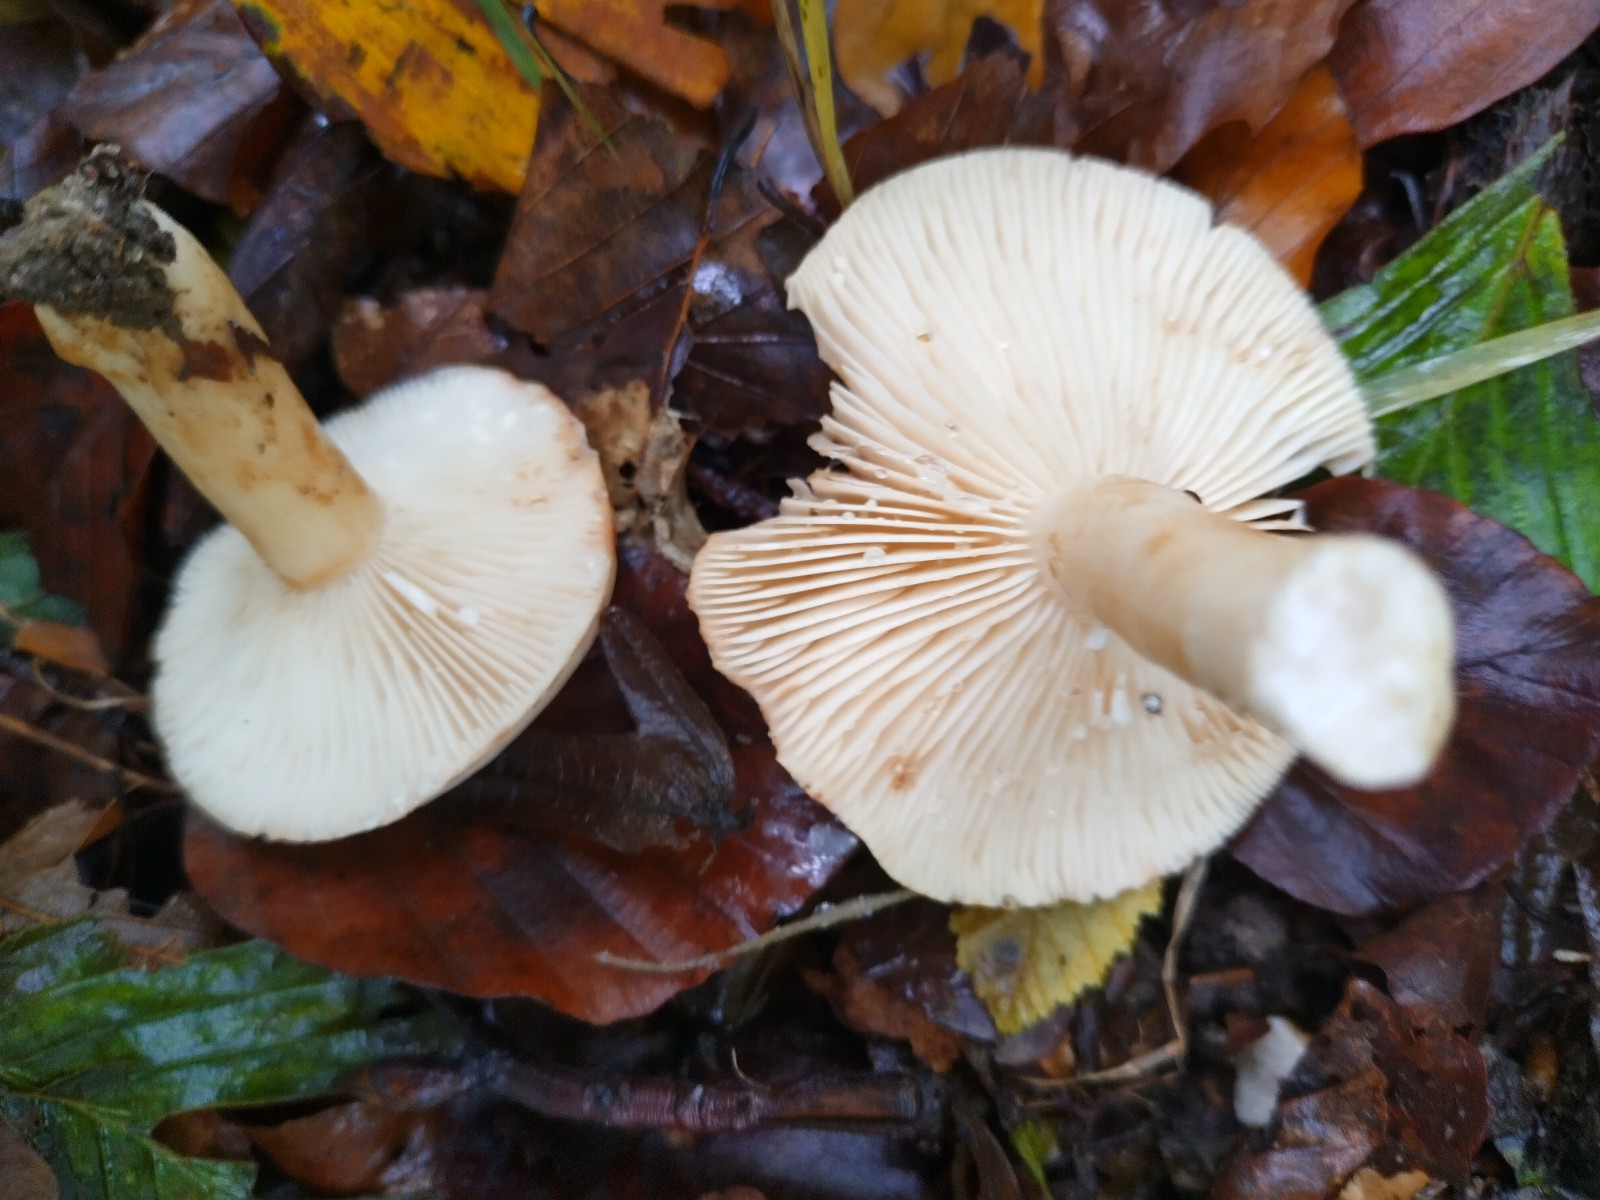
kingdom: Fungi
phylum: Basidiomycota
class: Agaricomycetes
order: Russulales
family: Russulaceae
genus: Lactarius
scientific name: Lactarius pallidus
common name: bleg mælkehat
